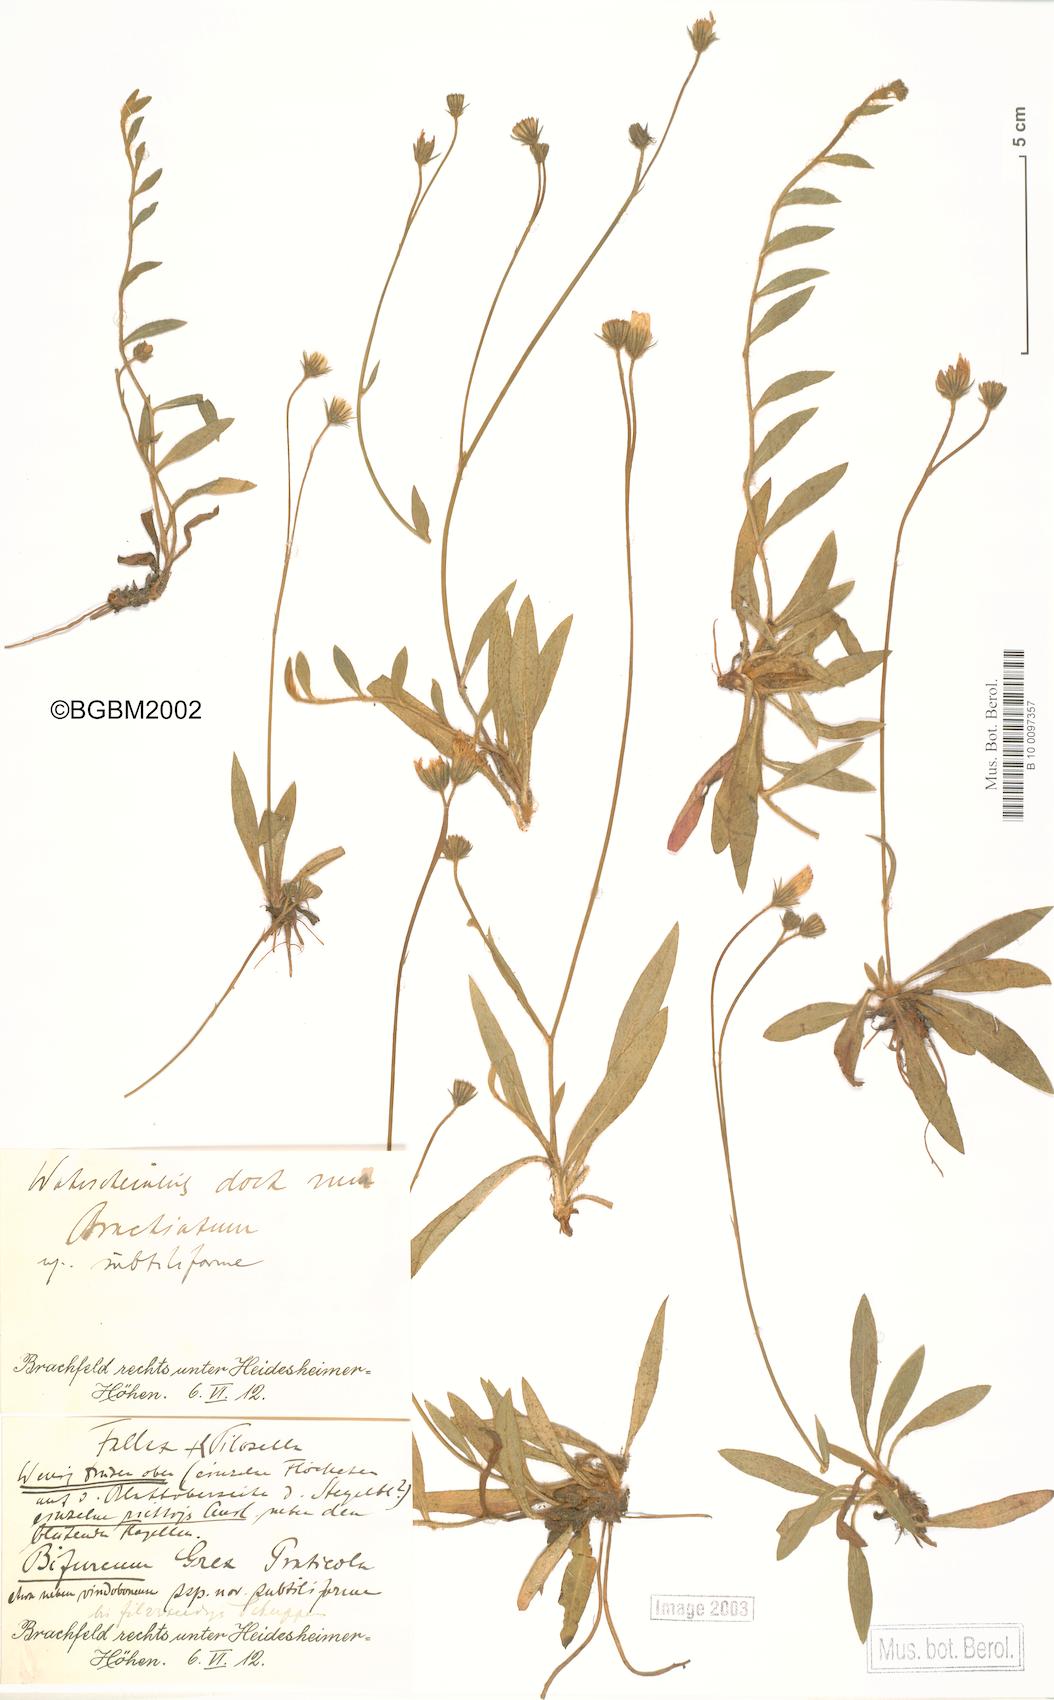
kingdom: Plantae
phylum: Tracheophyta
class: Magnoliopsida
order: Asterales
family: Asteraceae
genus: Pilosella
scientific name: Pilosella cinereiformis
